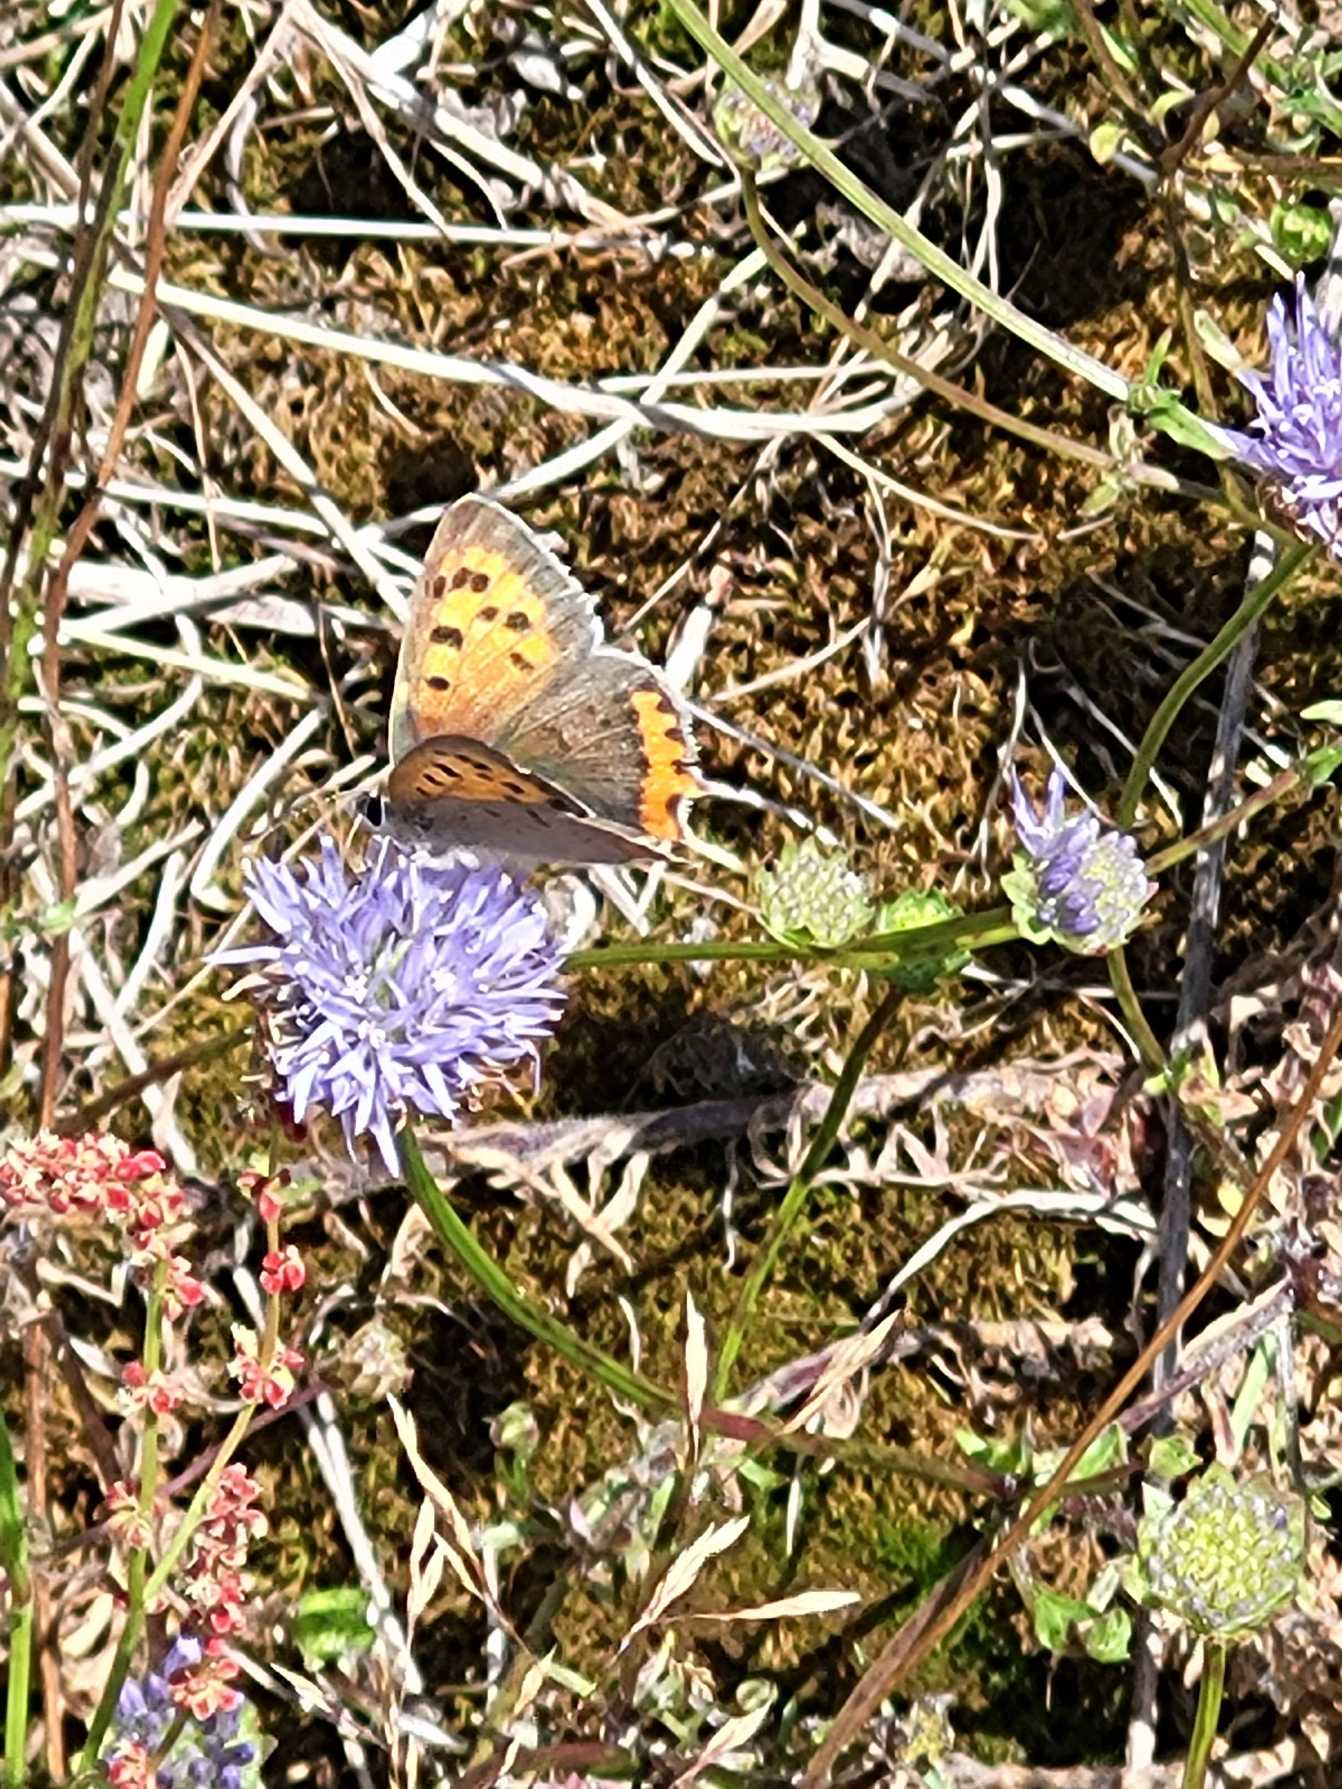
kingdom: Animalia
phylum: Arthropoda
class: Insecta
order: Lepidoptera
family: Lycaenidae
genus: Lycaena
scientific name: Lycaena phlaeas
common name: Lille ildfugl
